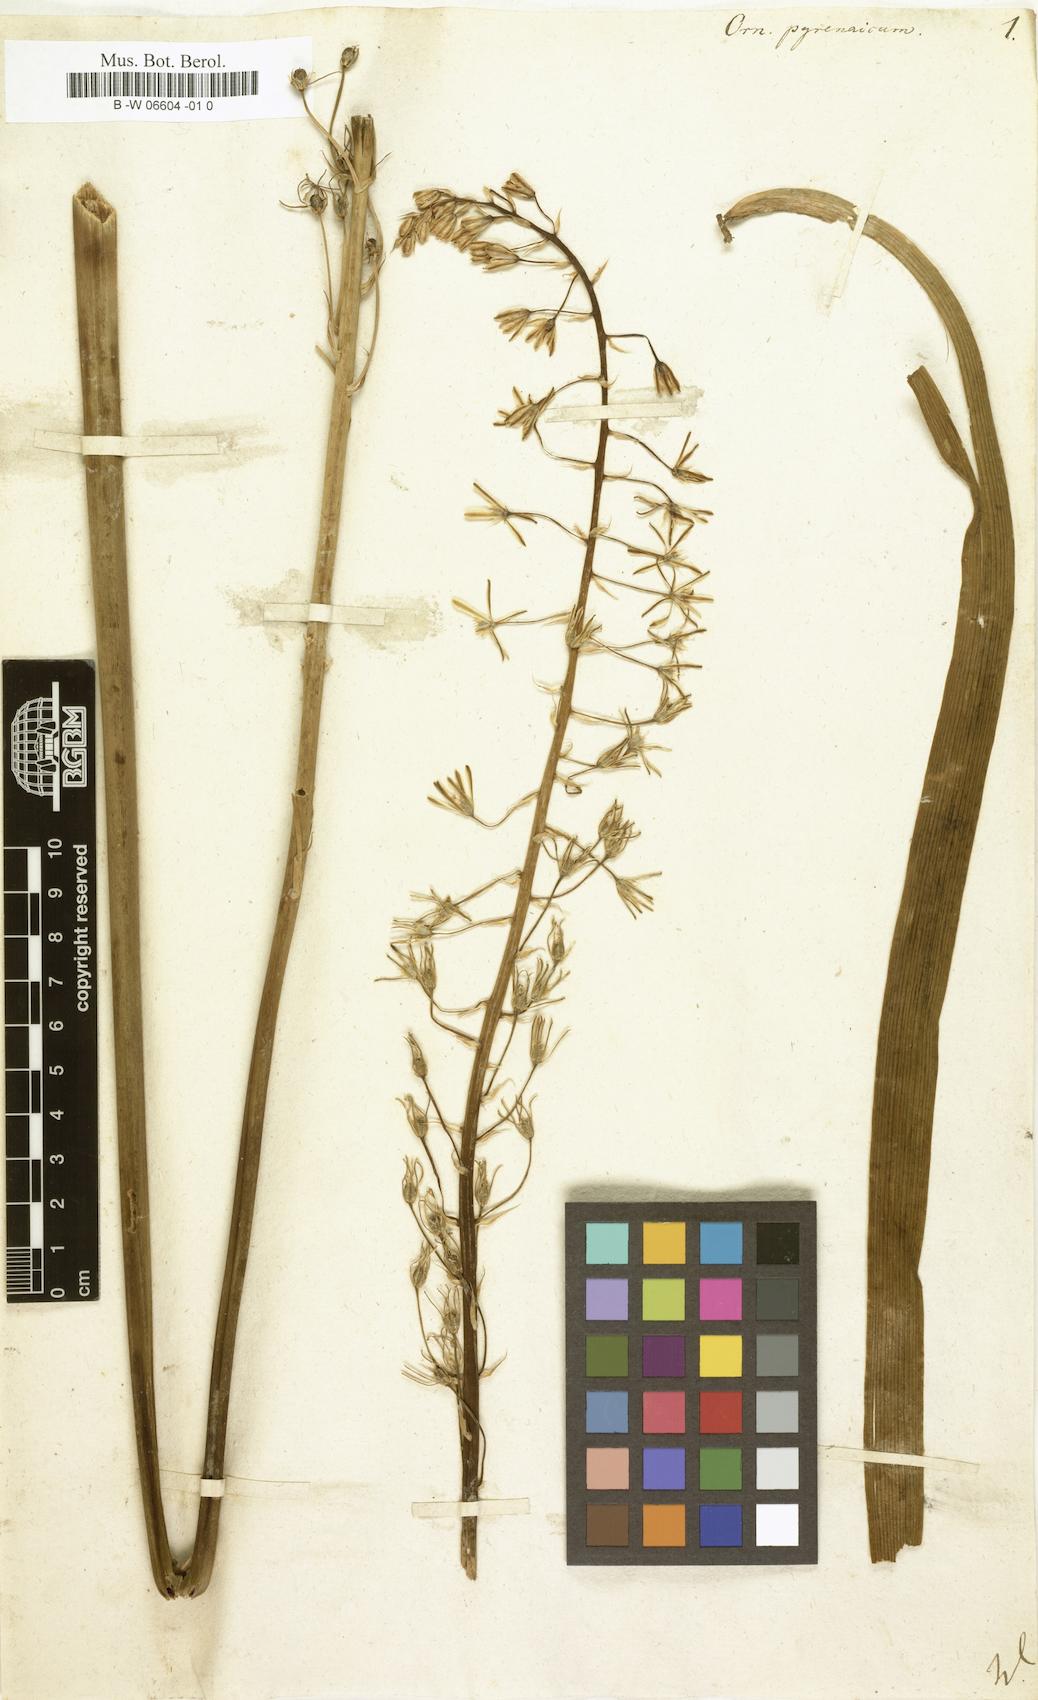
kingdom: Plantae
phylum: Tracheophyta
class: Liliopsida
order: Asparagales
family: Asparagaceae
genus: Ornithogalum
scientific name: Ornithogalum pyrenaicum
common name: Spiked star-of-bethlehem
